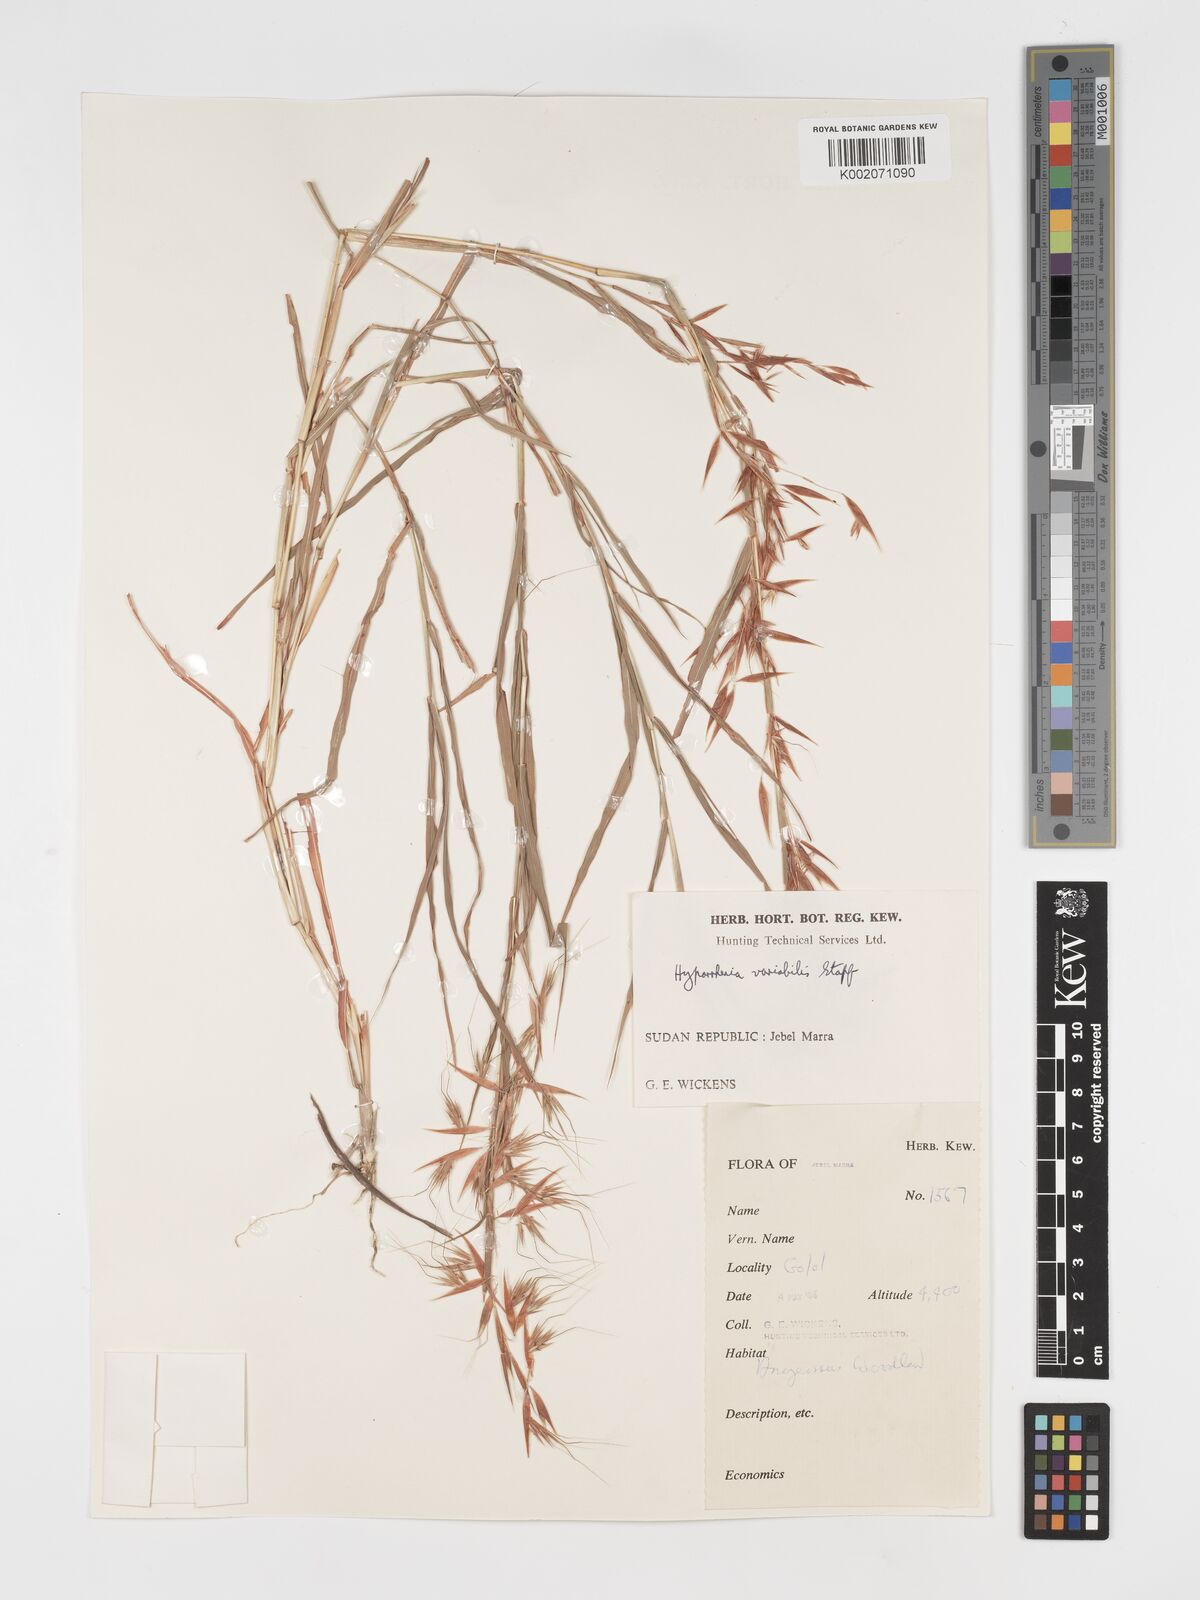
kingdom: Plantae
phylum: Tracheophyta
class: Liliopsida
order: Poales
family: Poaceae
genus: Hyparrhenia
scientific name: Hyparrhenia variabilis
